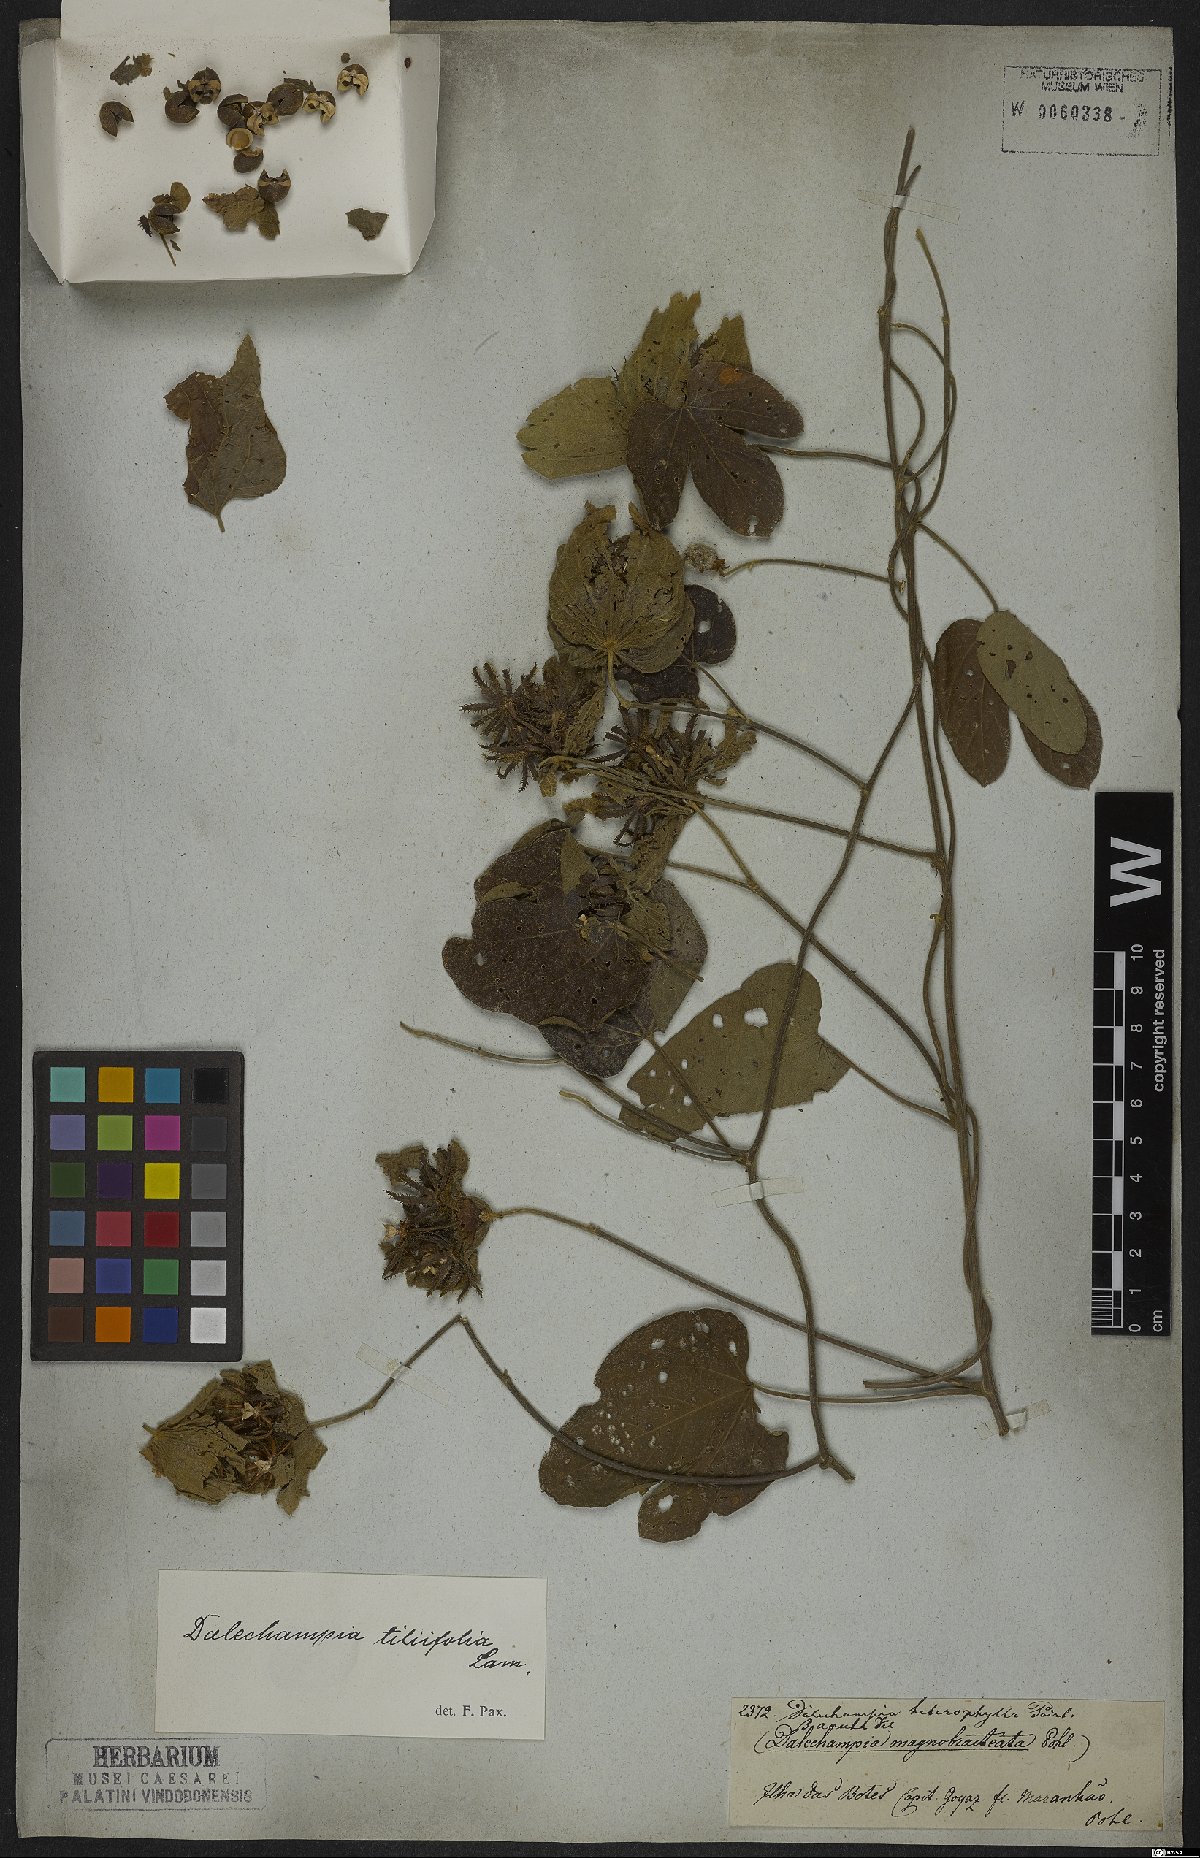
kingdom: Plantae
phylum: Tracheophyta
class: Magnoliopsida
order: Malpighiales
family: Euphorbiaceae
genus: Dalechampia
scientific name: Dalechampia tiliifolia
